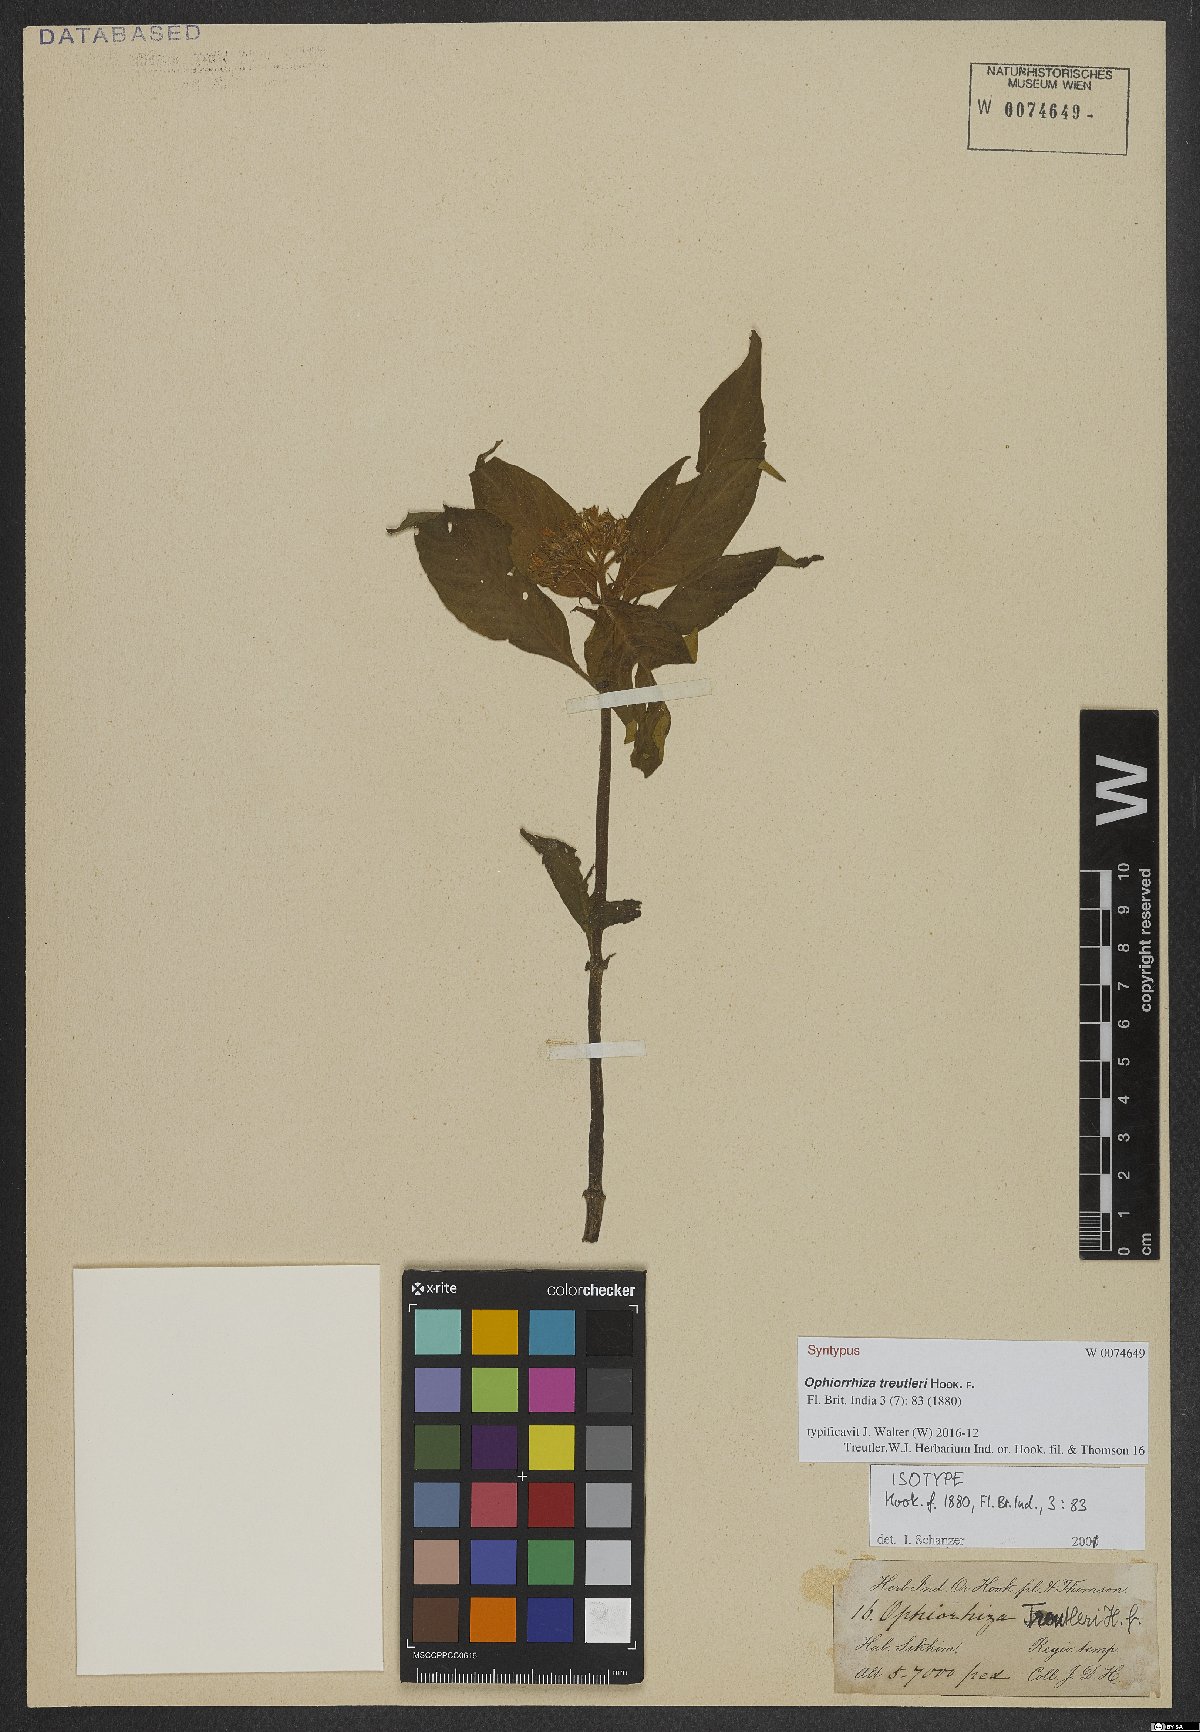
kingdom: Plantae
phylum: Tracheophyta
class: Magnoliopsida
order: Gentianales
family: Rubiaceae
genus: Ophiorrhiza
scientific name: Ophiorrhiza treutleri
